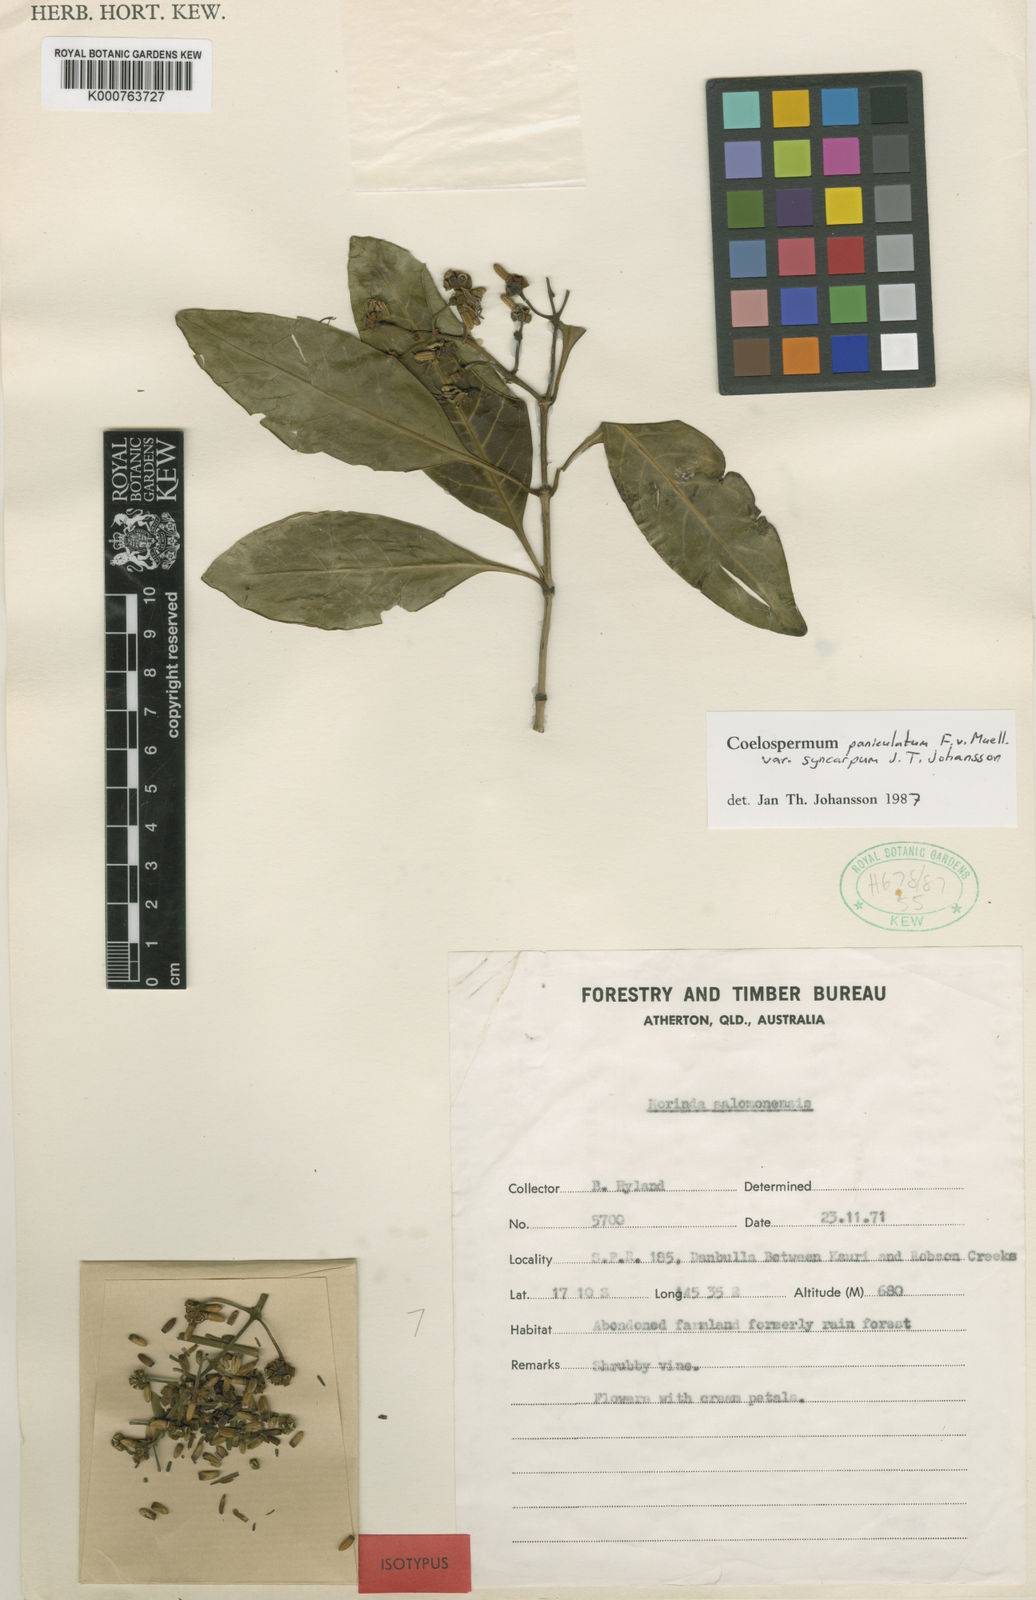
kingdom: Plantae
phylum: Tracheophyta
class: Magnoliopsida
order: Gentianales
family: Rubiaceae
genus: Coelospermum
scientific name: Coelospermum paniculatum
